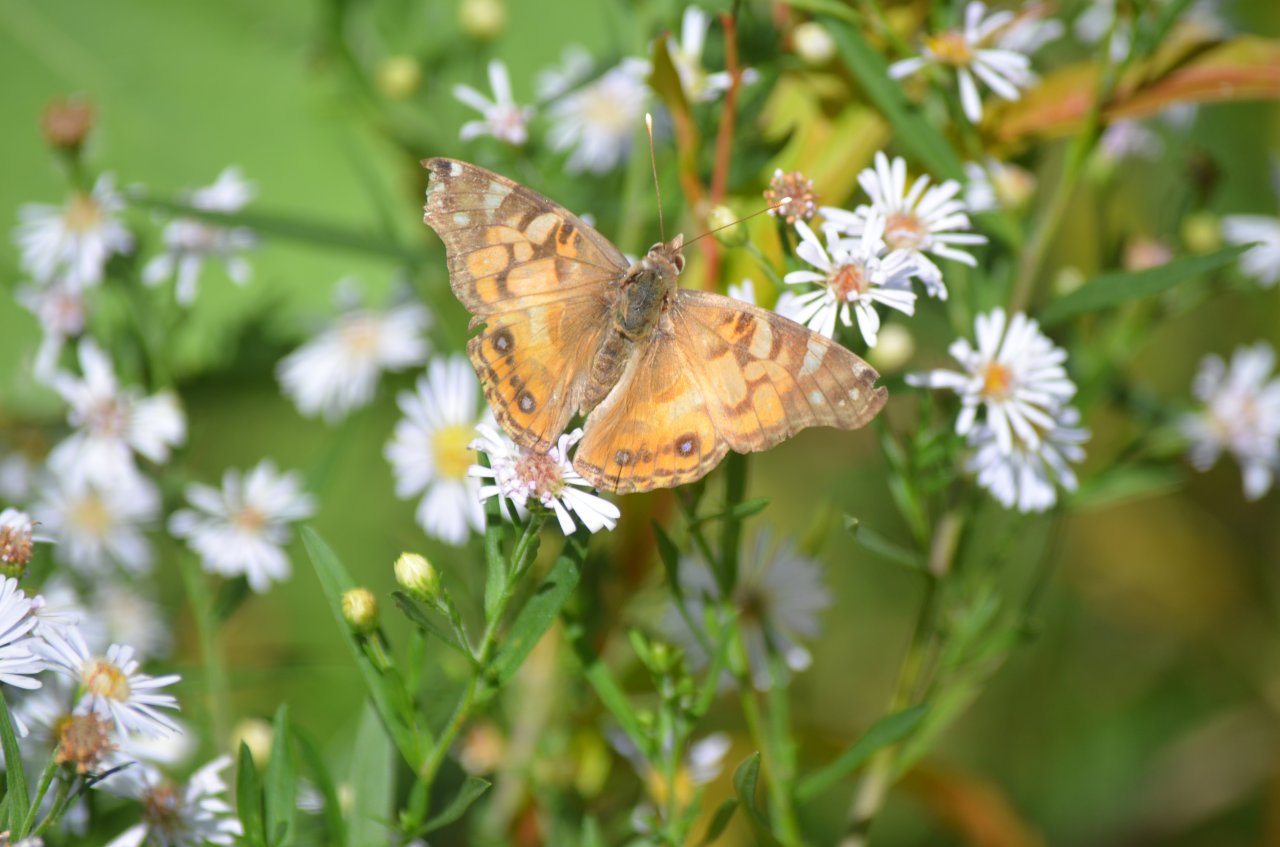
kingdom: Animalia
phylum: Arthropoda
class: Insecta
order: Lepidoptera
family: Nymphalidae
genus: Vanessa
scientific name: Vanessa virginiensis
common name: American Lady
